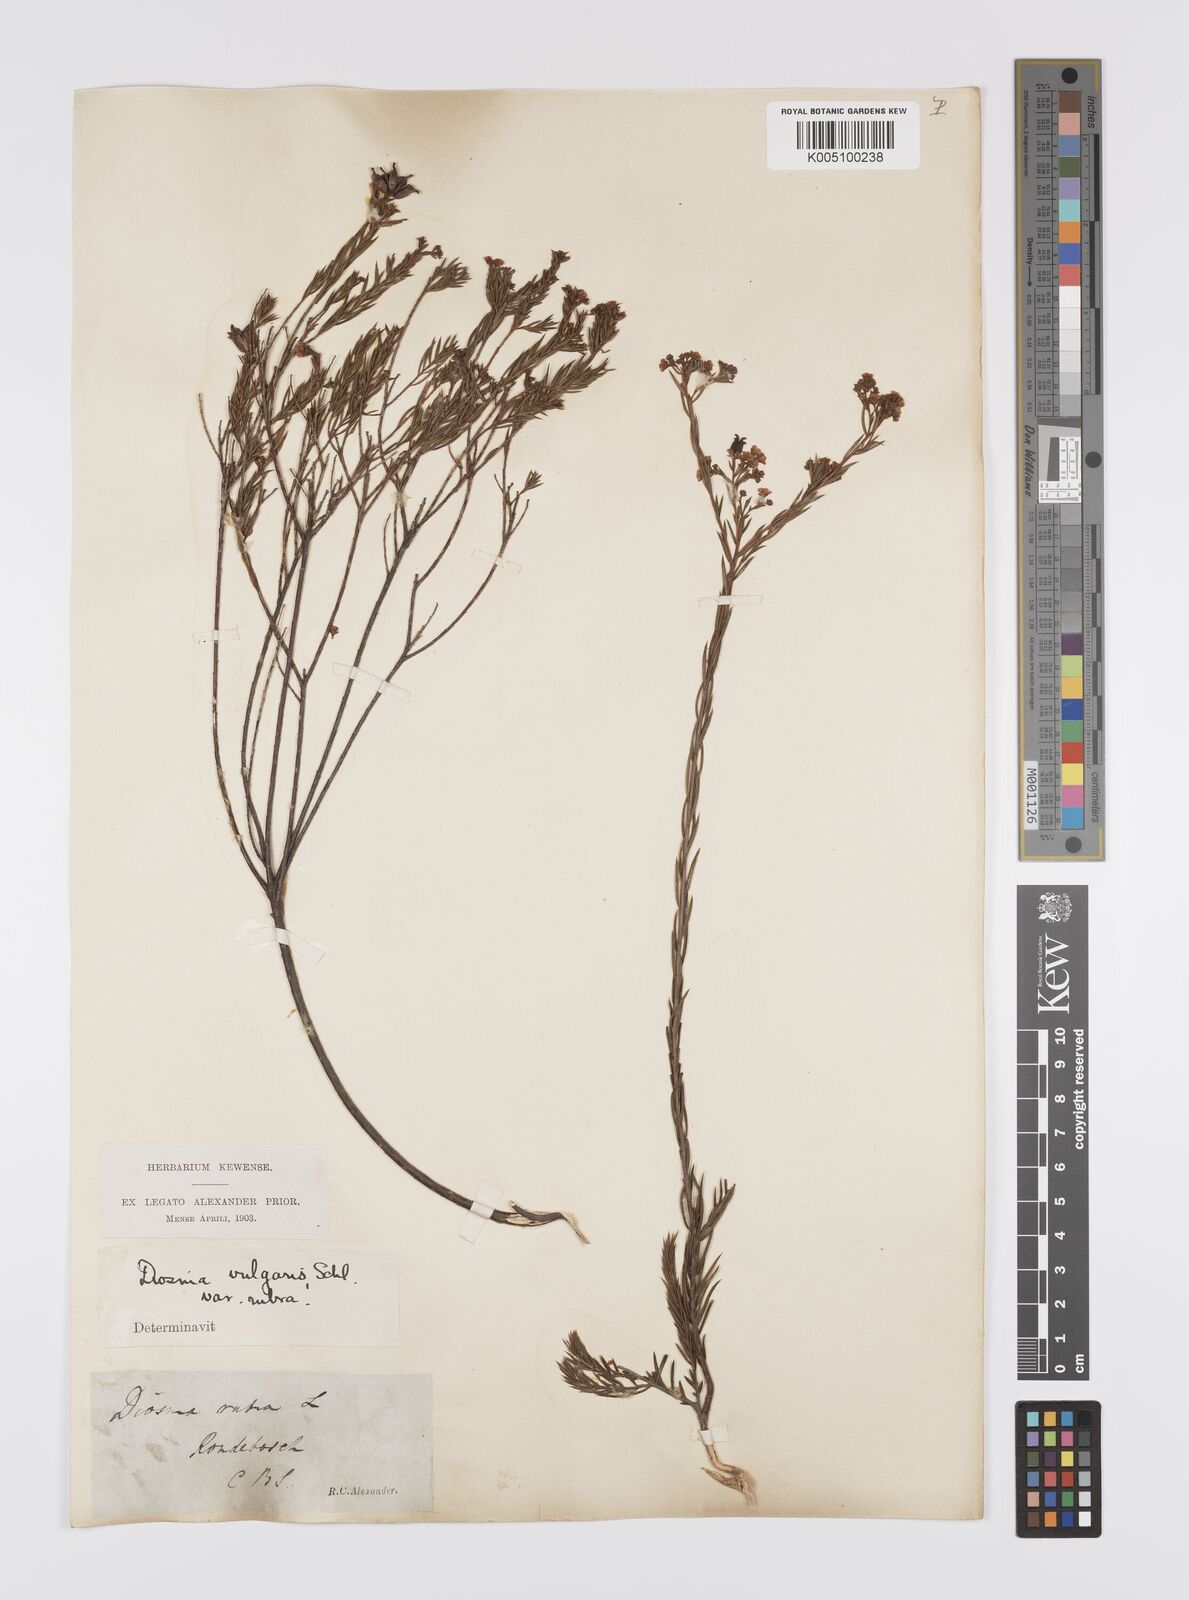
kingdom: Plantae
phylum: Tracheophyta
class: Magnoliopsida
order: Sapindales
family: Rutaceae
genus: Diosma
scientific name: Diosma hirsuta
